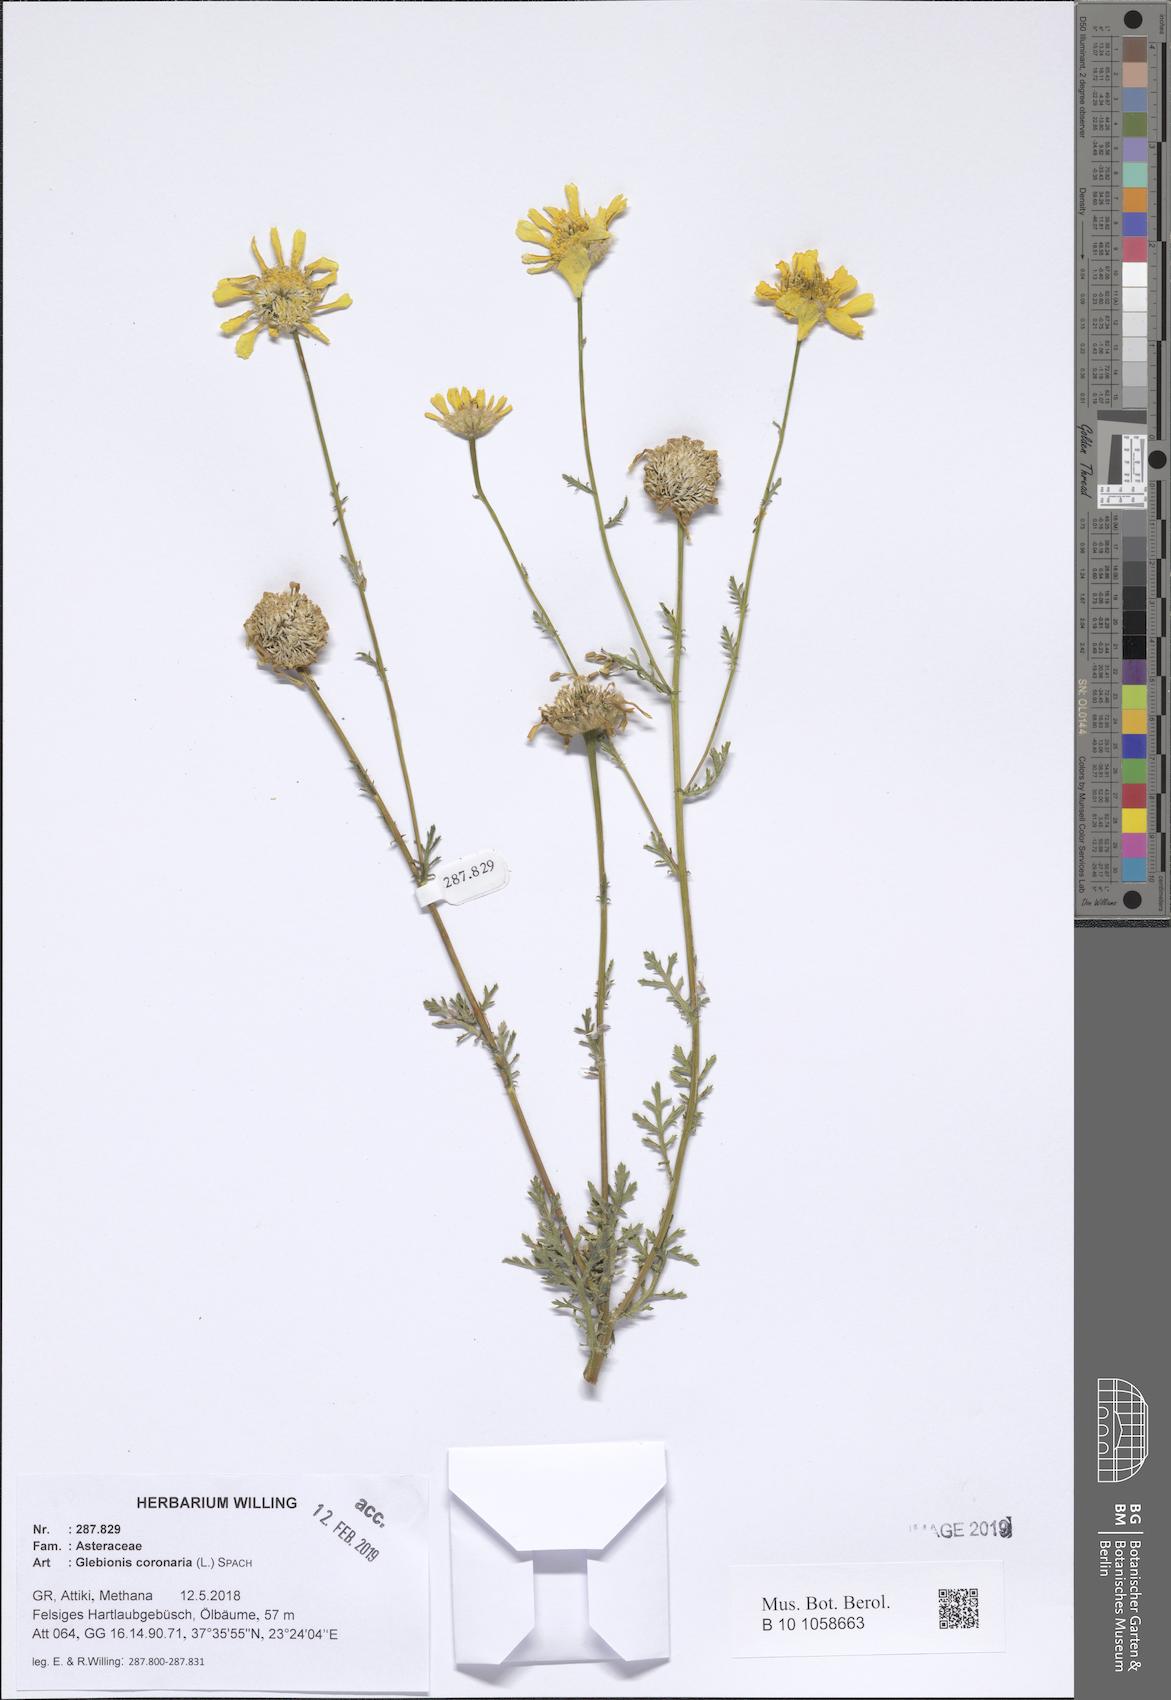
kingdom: Plantae
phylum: Tracheophyta
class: Magnoliopsida
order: Asterales
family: Asteraceae
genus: Glebionis
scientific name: Glebionis coronaria
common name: Crowndaisy
